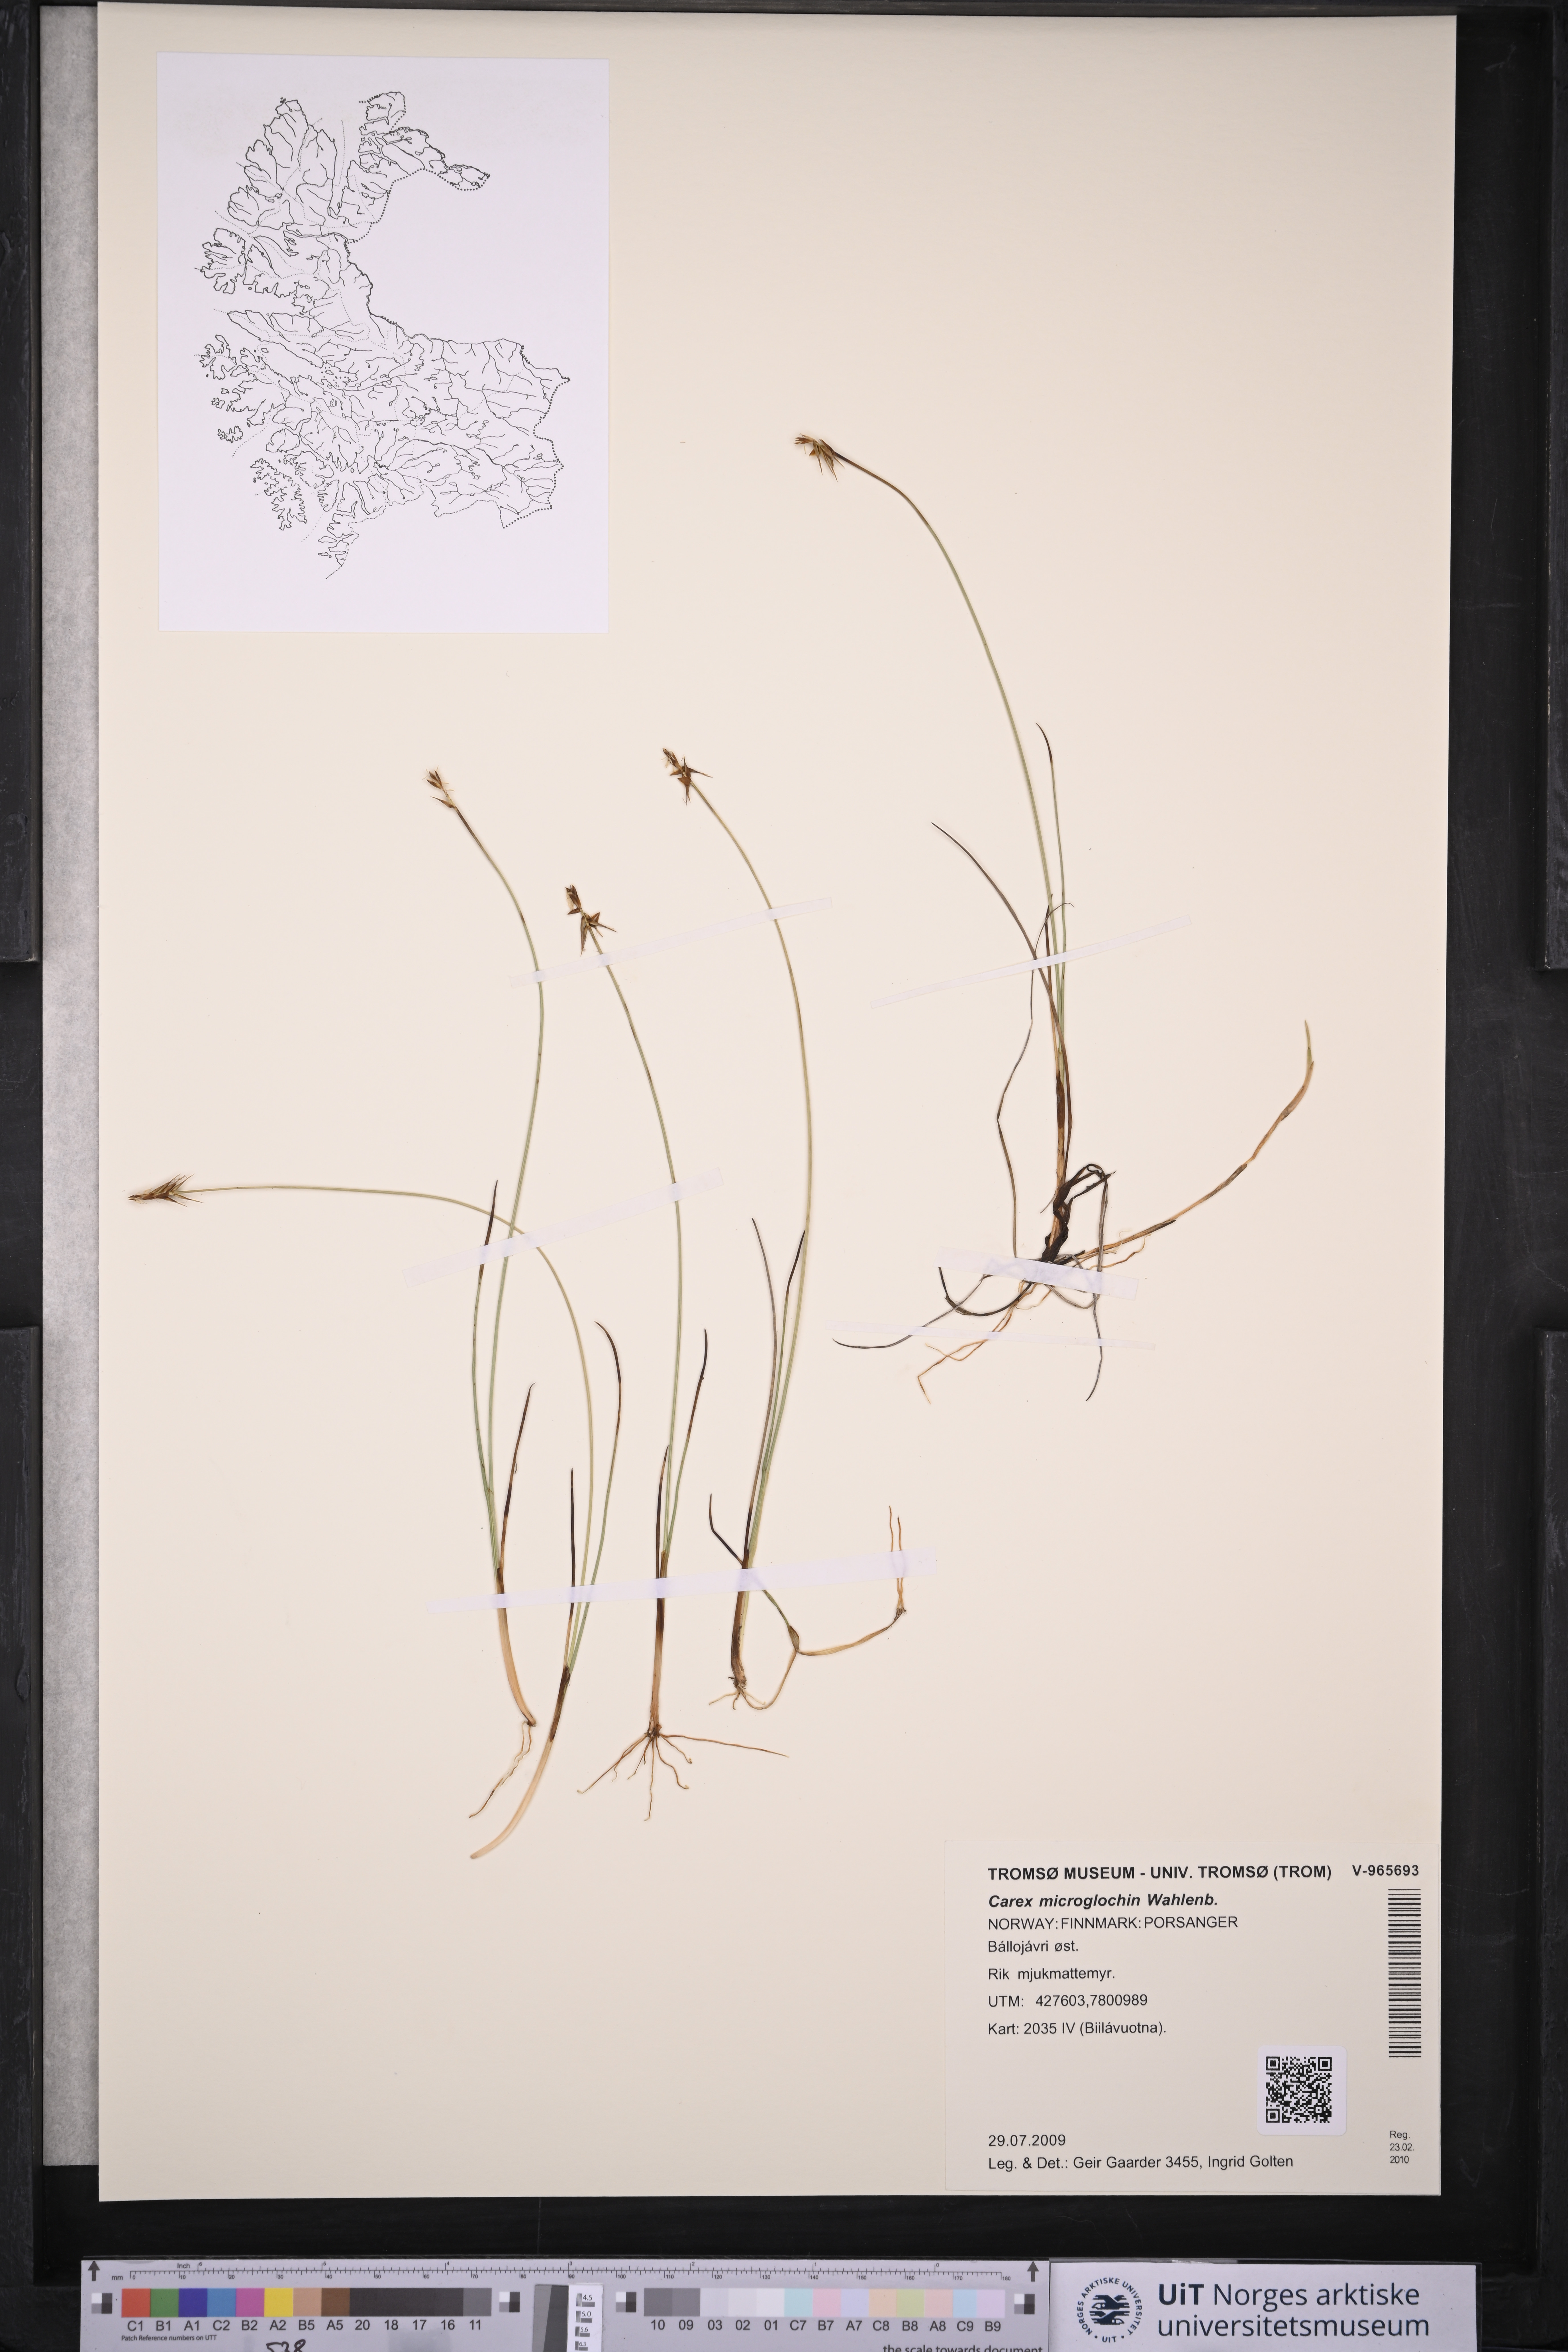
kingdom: Plantae
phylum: Tracheophyta
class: Liliopsida
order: Poales
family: Cyperaceae
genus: Carex
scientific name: Carex microglochin
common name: Bristle sedge
